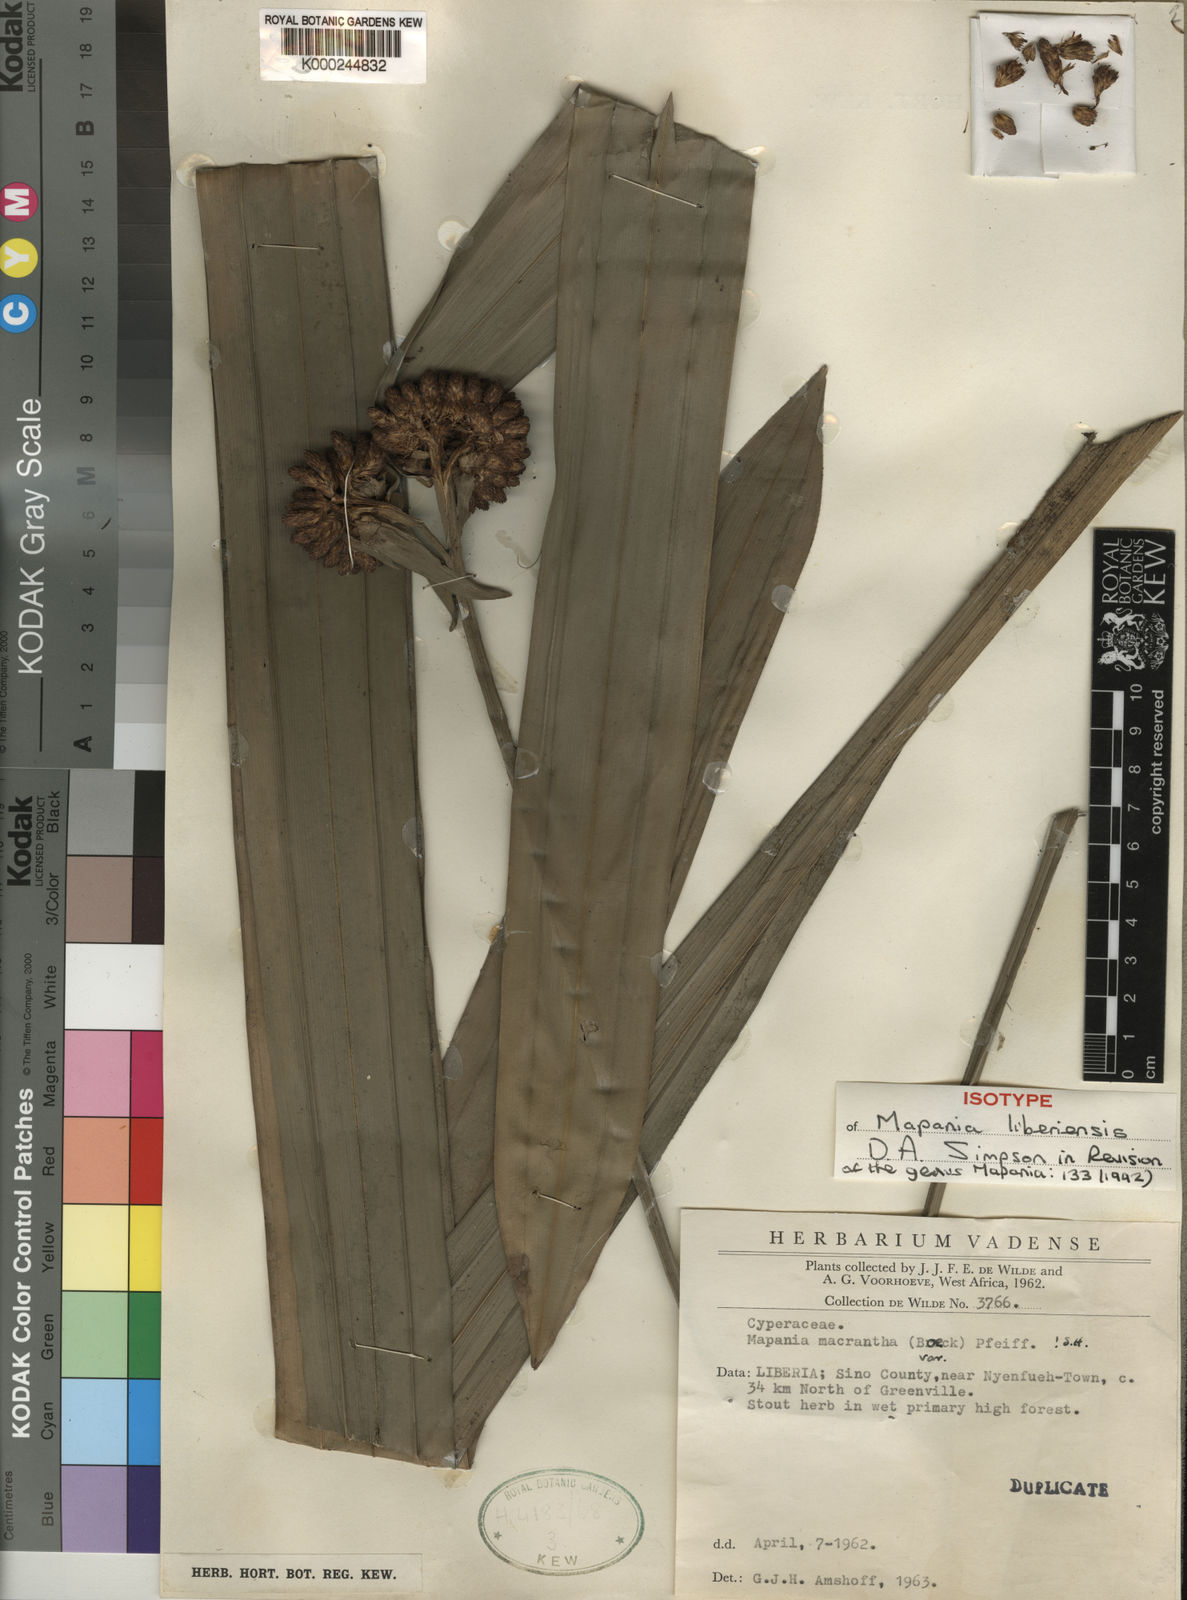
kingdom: Plantae
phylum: Tracheophyta
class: Liliopsida
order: Poales
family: Cyperaceae
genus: Mapania
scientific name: Mapania liberiensis
